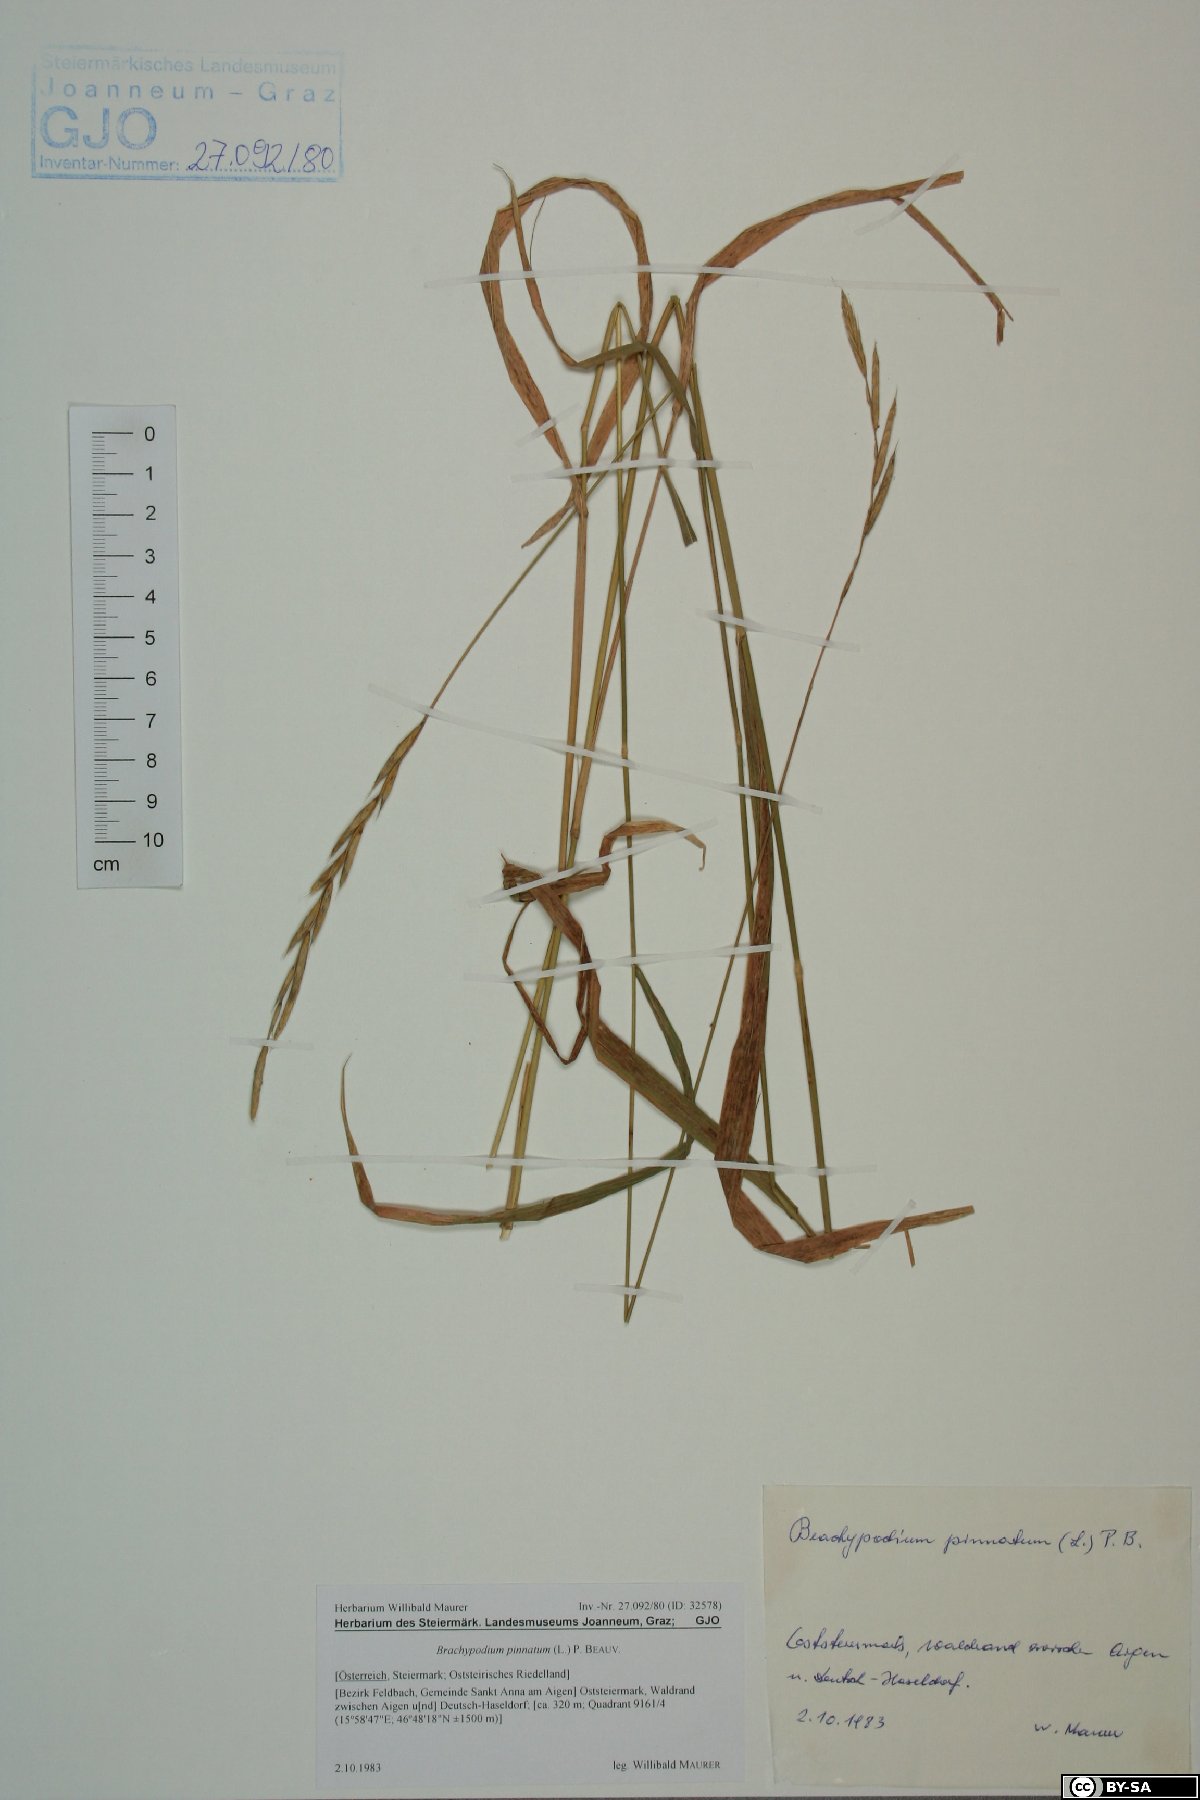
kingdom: Plantae
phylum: Tracheophyta
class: Liliopsida
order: Poales
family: Poaceae
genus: Brachypodium
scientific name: Brachypodium pinnatum
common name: Tor grass
